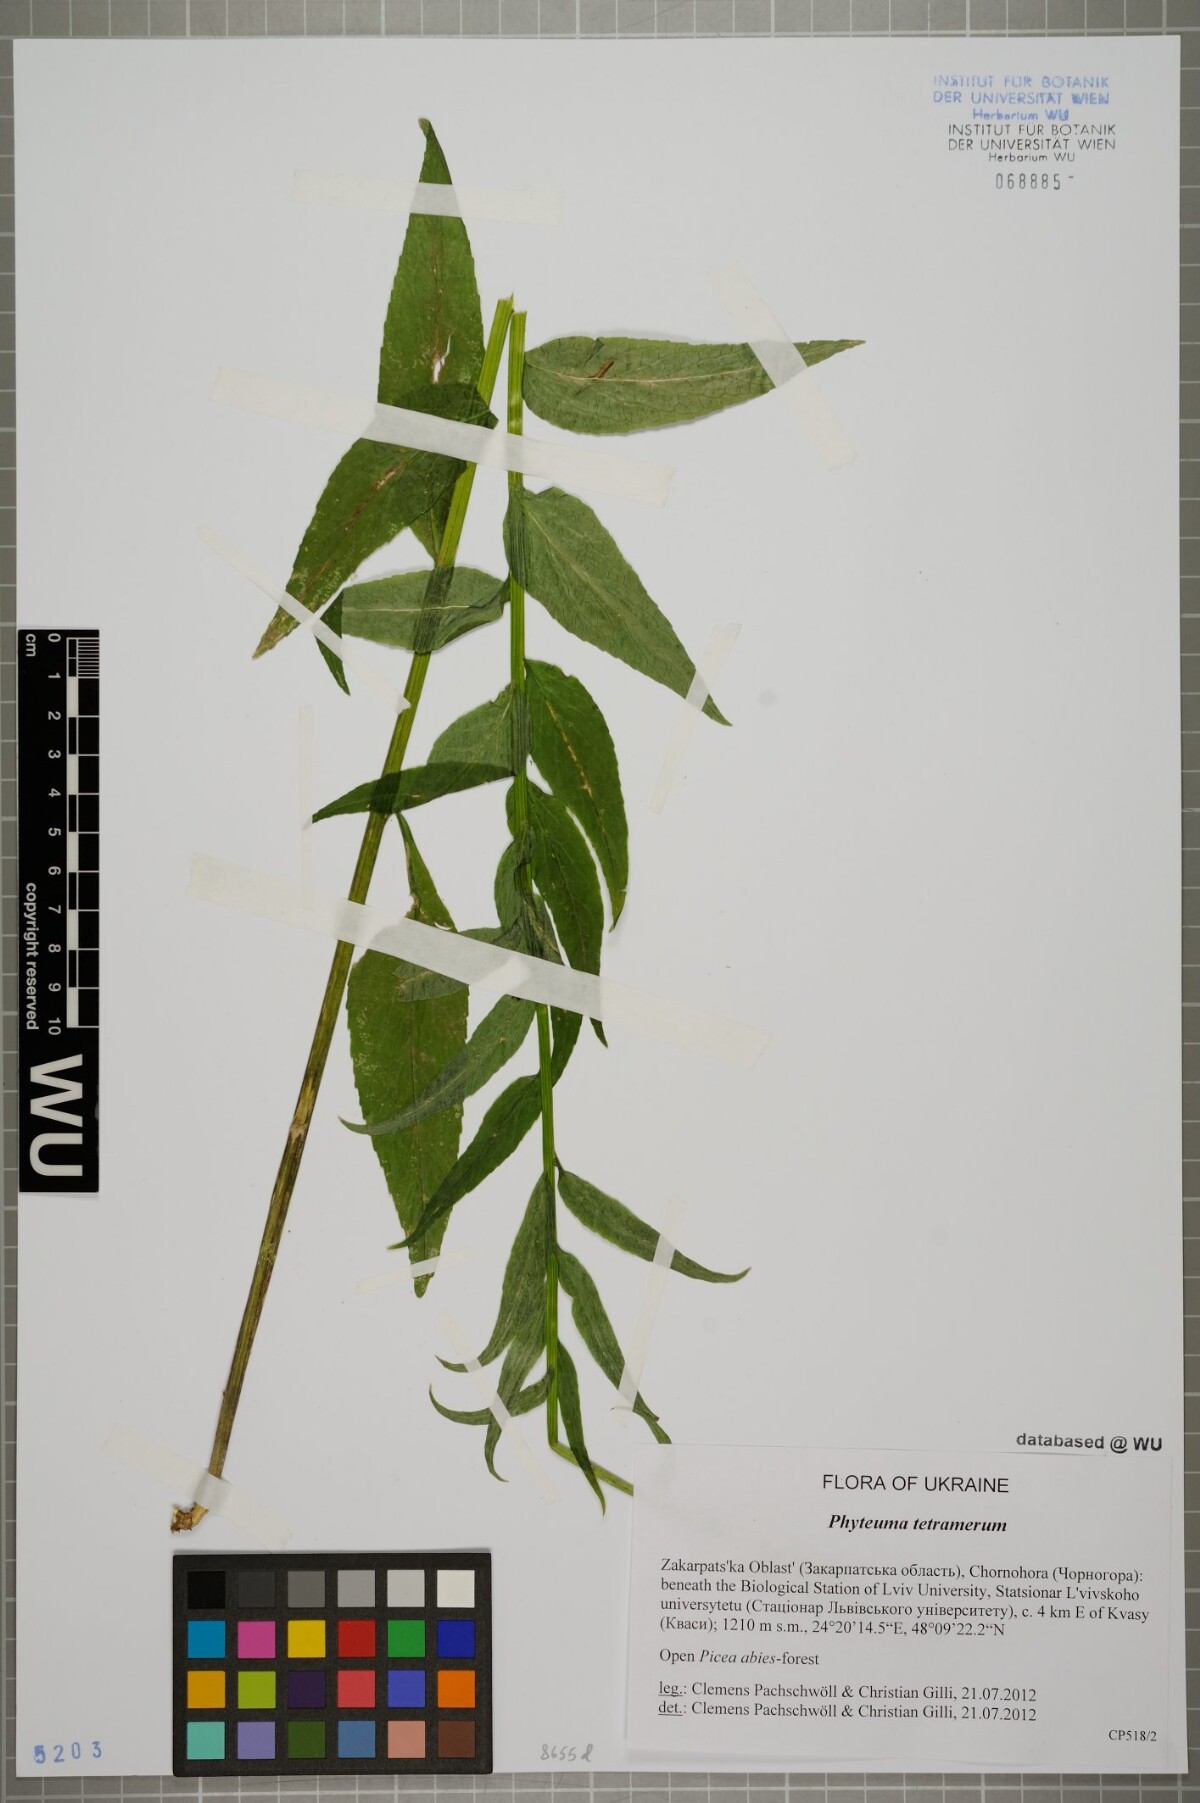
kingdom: Plantae
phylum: Tracheophyta
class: Magnoliopsida
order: Asterales
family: Campanulaceae
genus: Phyteuma
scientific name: Phyteuma tetramerum
